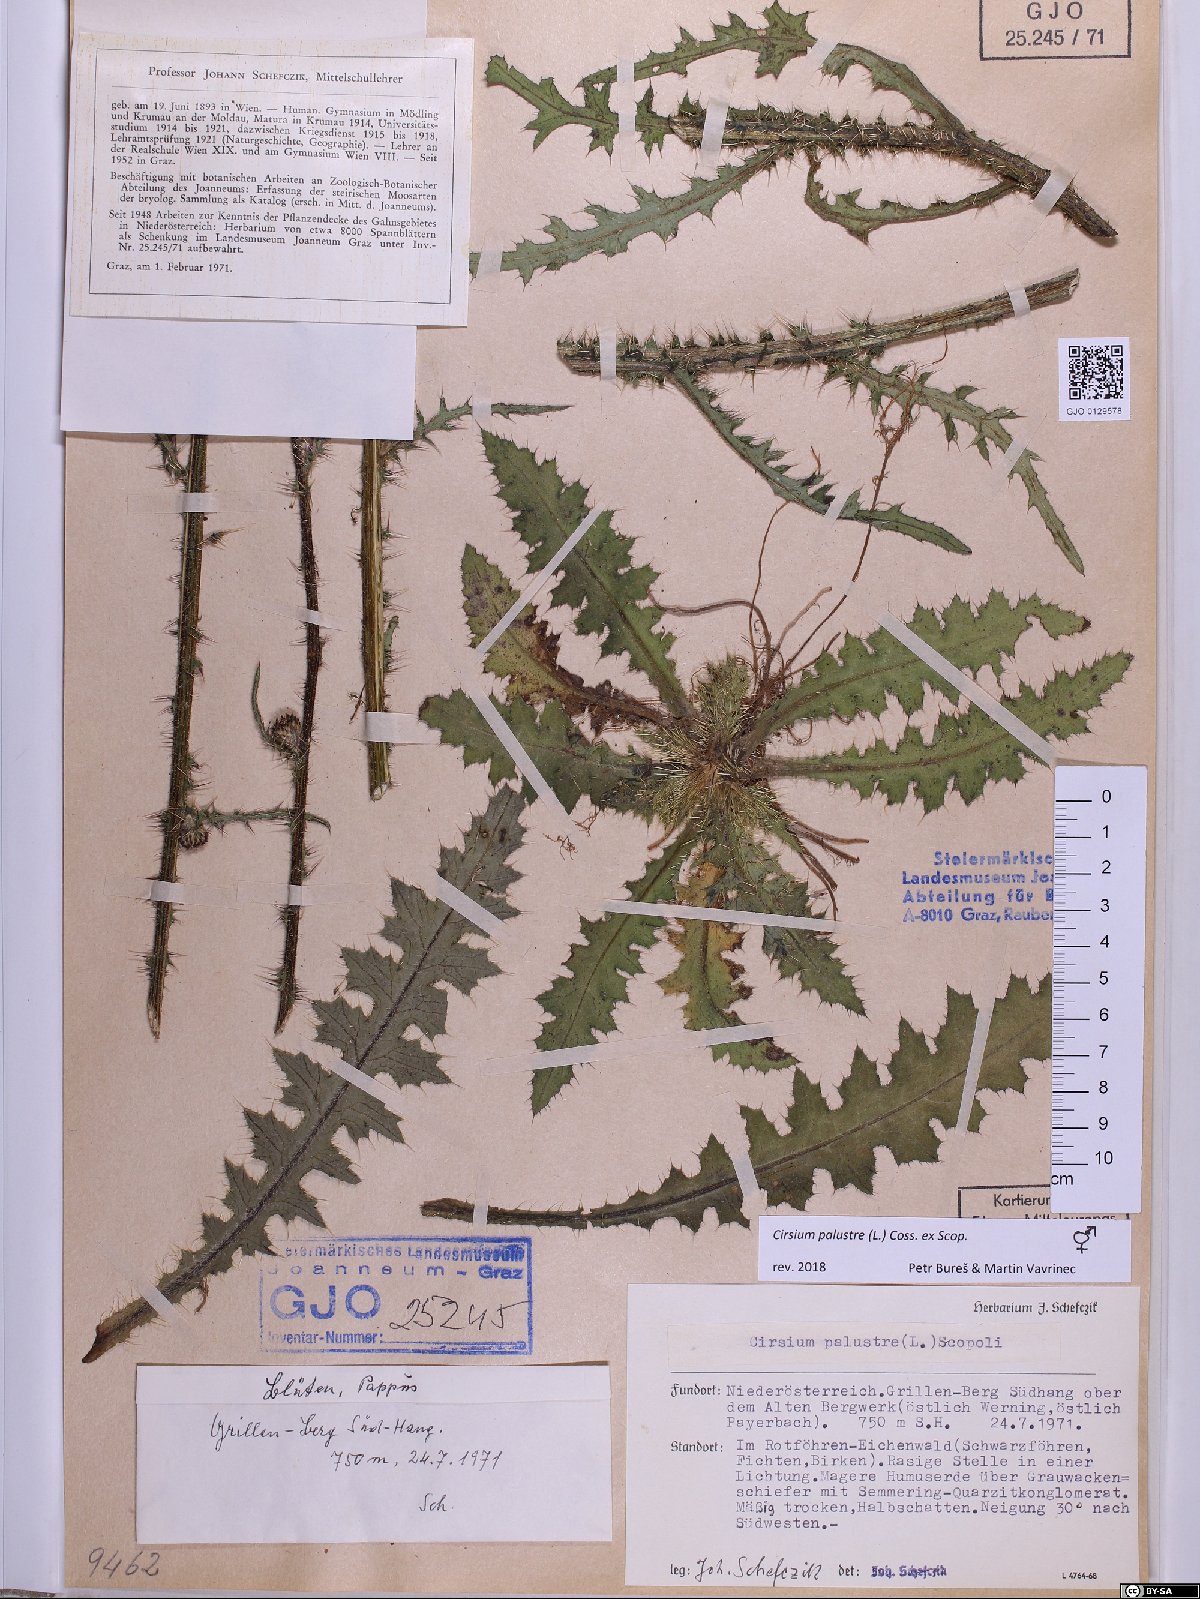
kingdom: Plantae
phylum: Tracheophyta
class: Magnoliopsida
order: Asterales
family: Asteraceae
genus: Cirsium
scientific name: Cirsium palustre
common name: Marsh thistle
